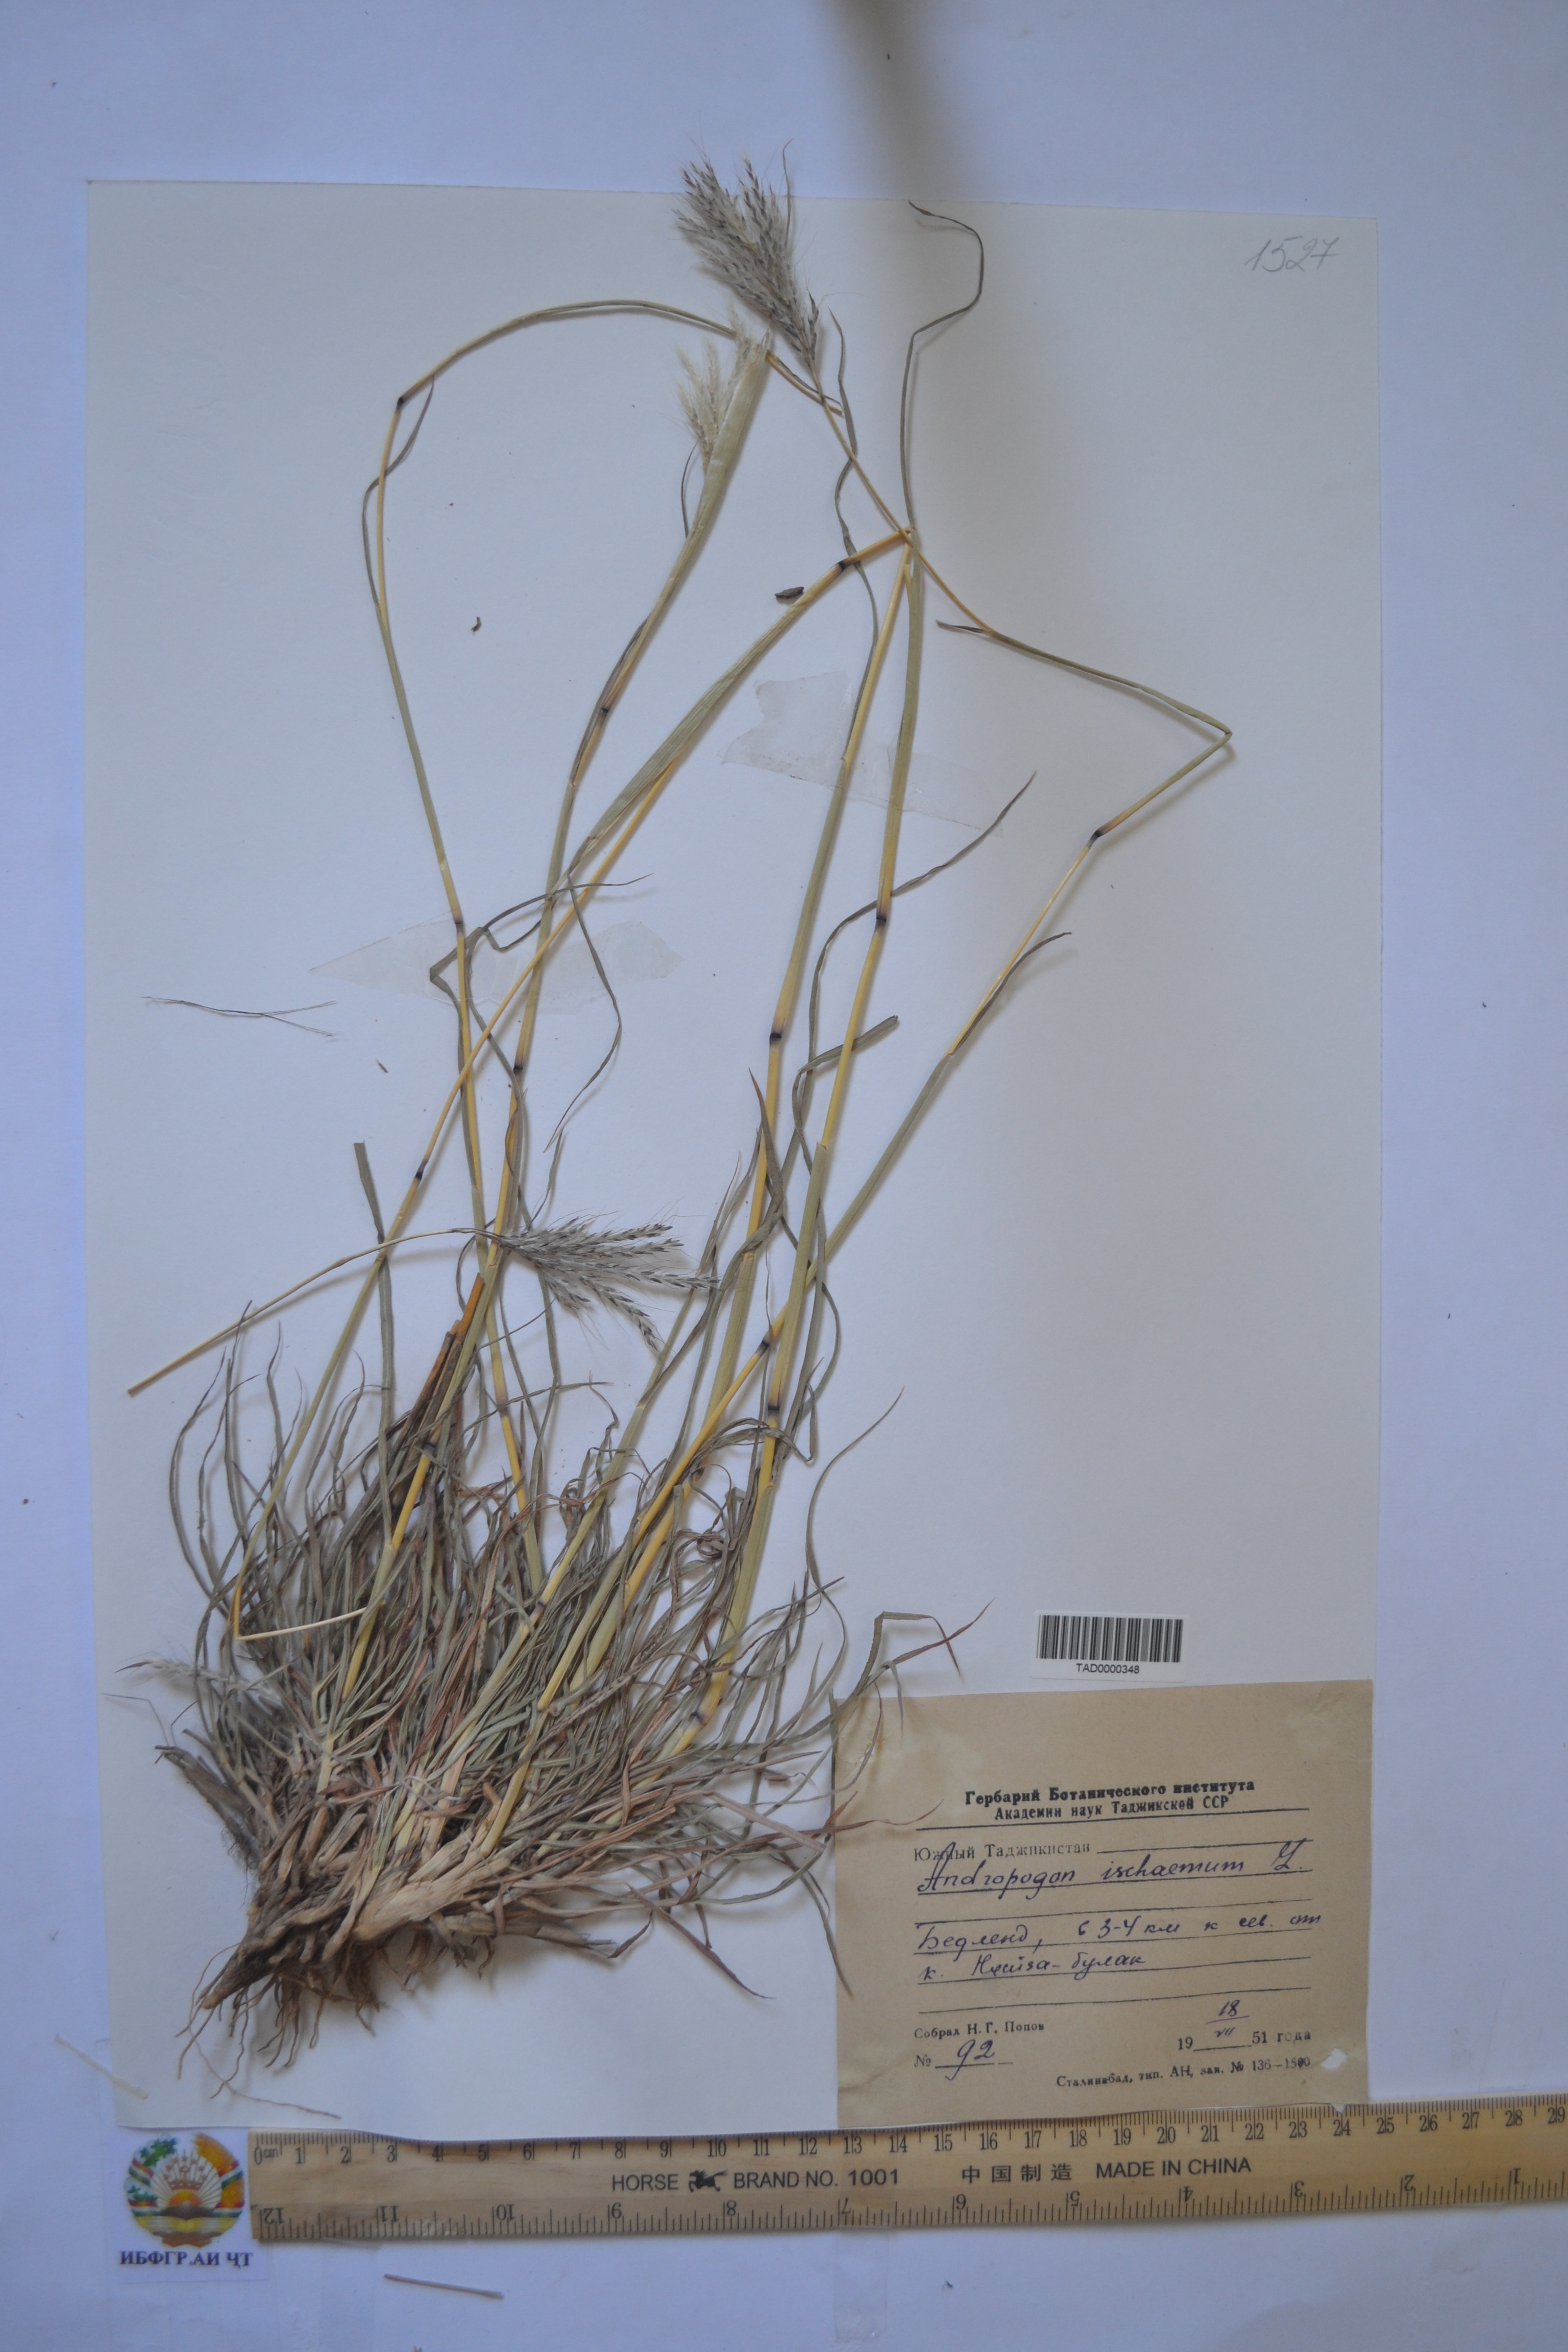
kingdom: Plantae
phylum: Tracheophyta
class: Liliopsida
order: Poales
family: Poaceae
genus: Andropogon
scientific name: Andropogon ischaemum
